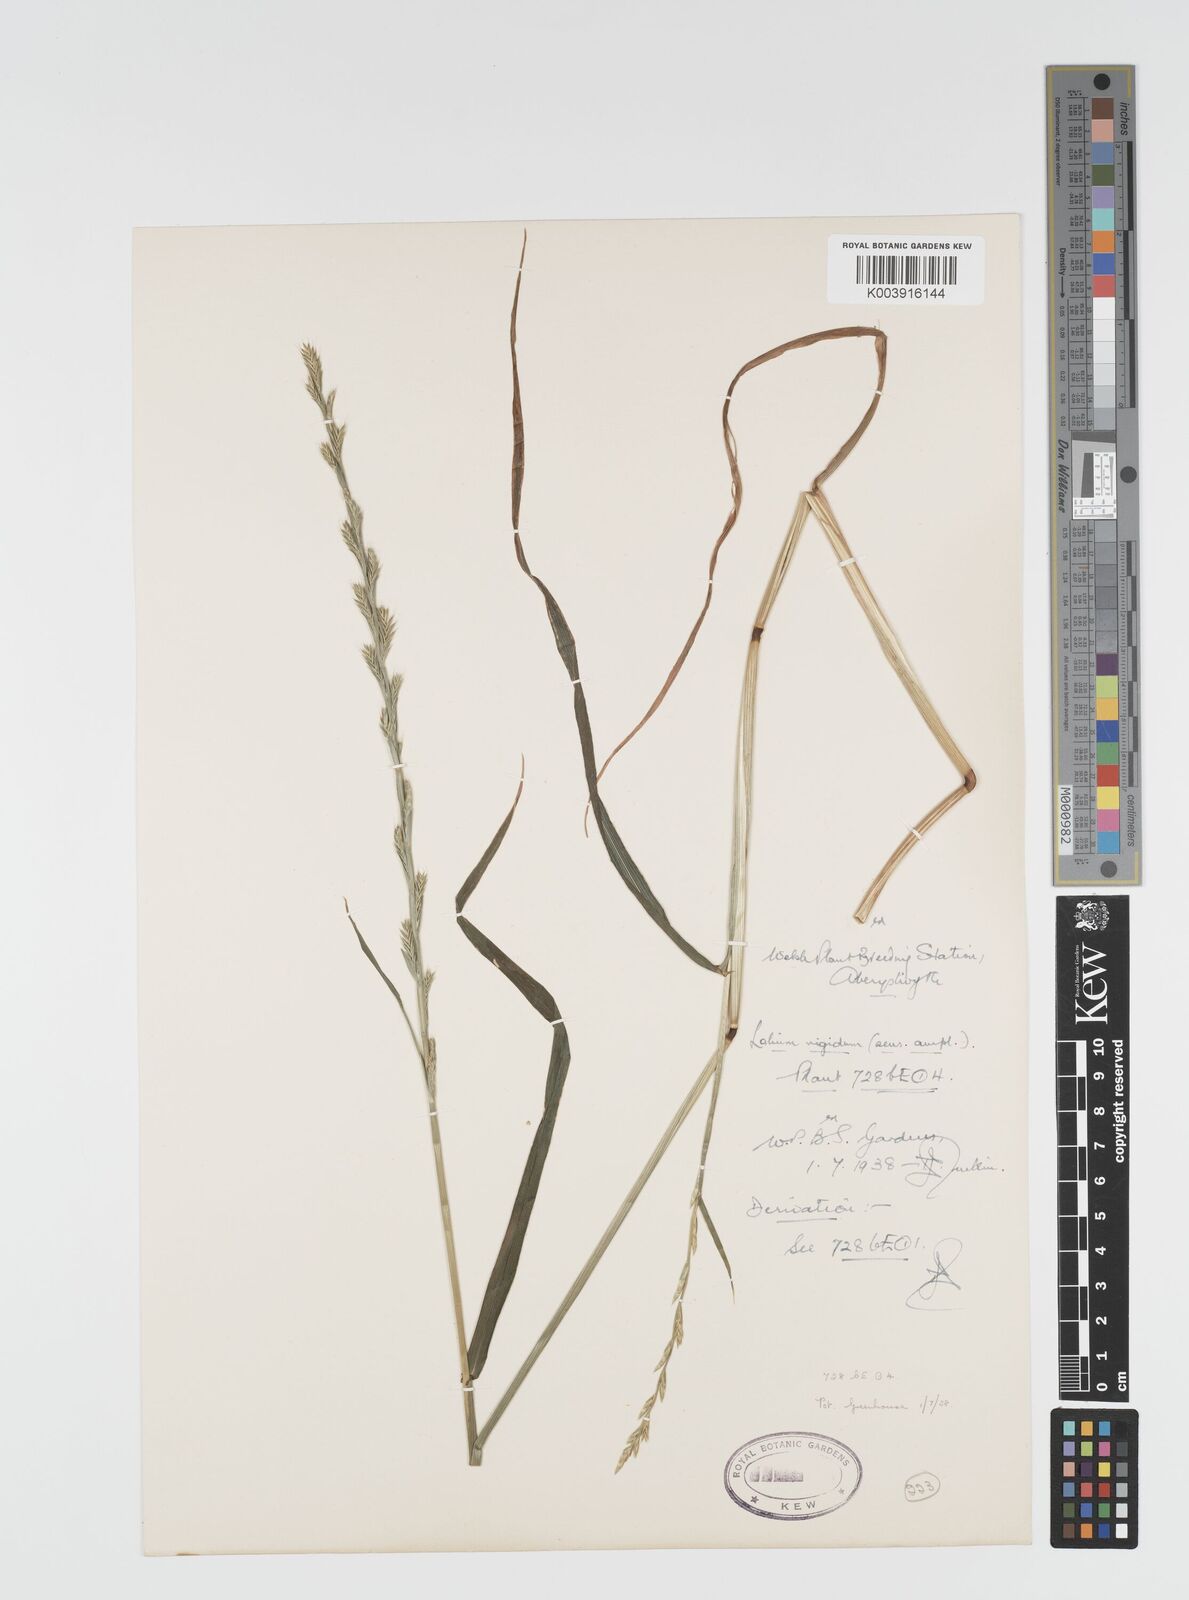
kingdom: Plantae
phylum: Tracheophyta
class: Liliopsida
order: Poales
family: Poaceae
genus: Lolium
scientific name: Lolium rigidum
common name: Wimmera ryegrass
